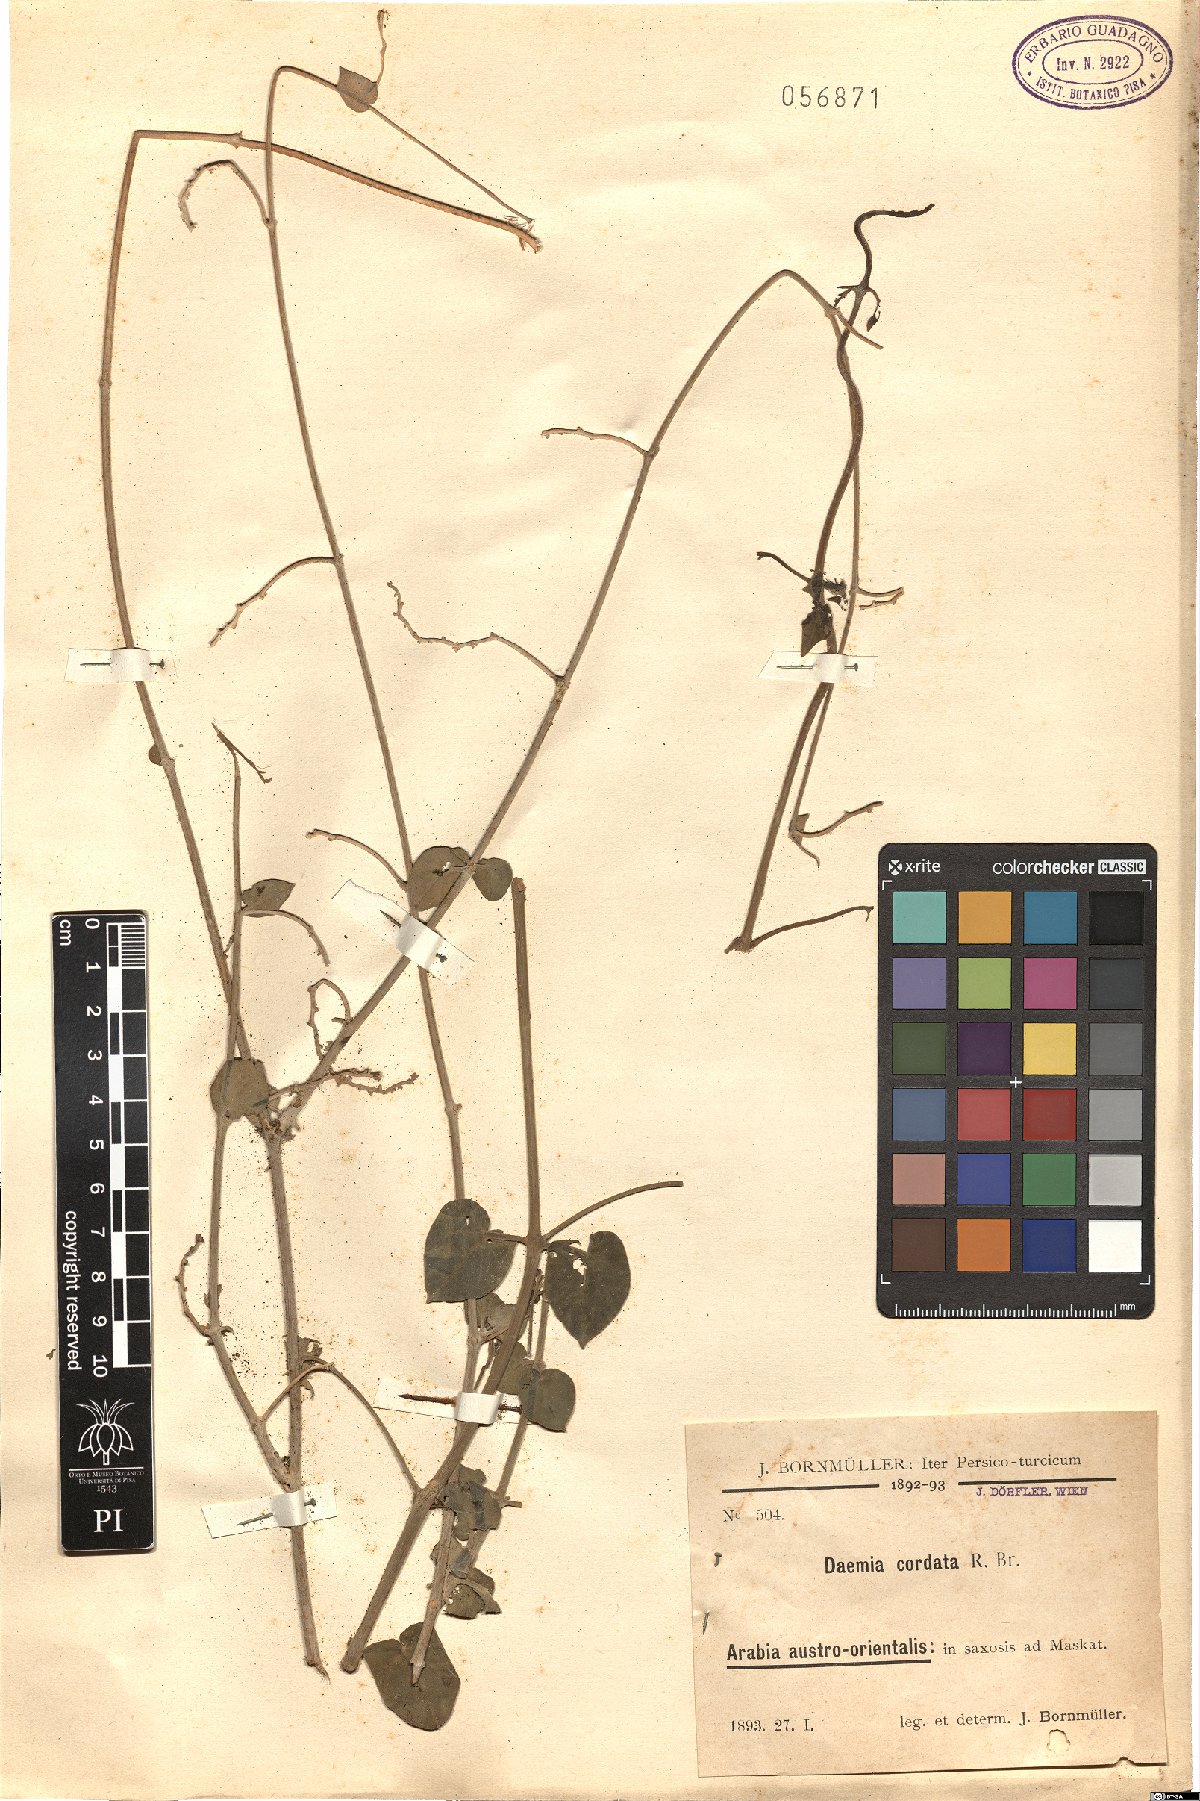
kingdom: Plantae
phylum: Tracheophyta
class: Magnoliopsida
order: Gentianales
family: Apocynaceae
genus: Pergularia
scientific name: Pergularia tomentosa
